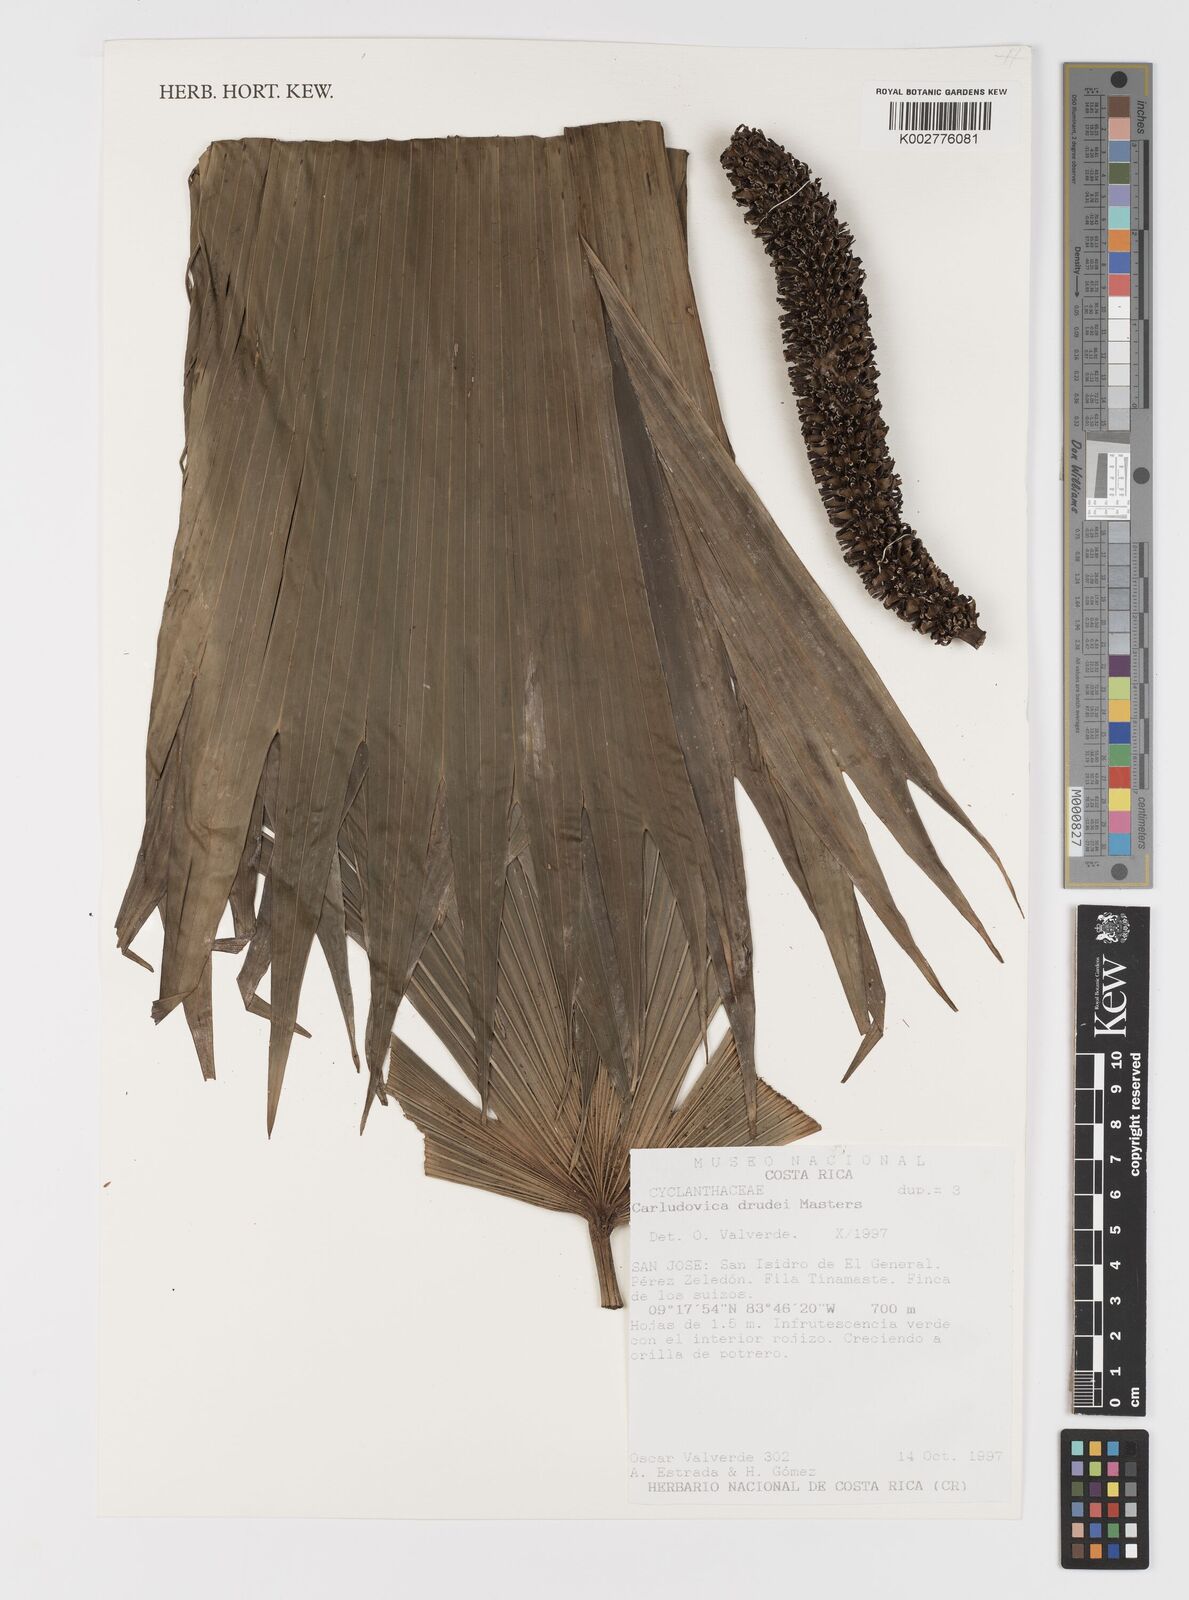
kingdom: Plantae
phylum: Tracheophyta
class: Liliopsida
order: Pandanales
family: Cyclanthaceae
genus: Carludovica
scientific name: Carludovica drudei
